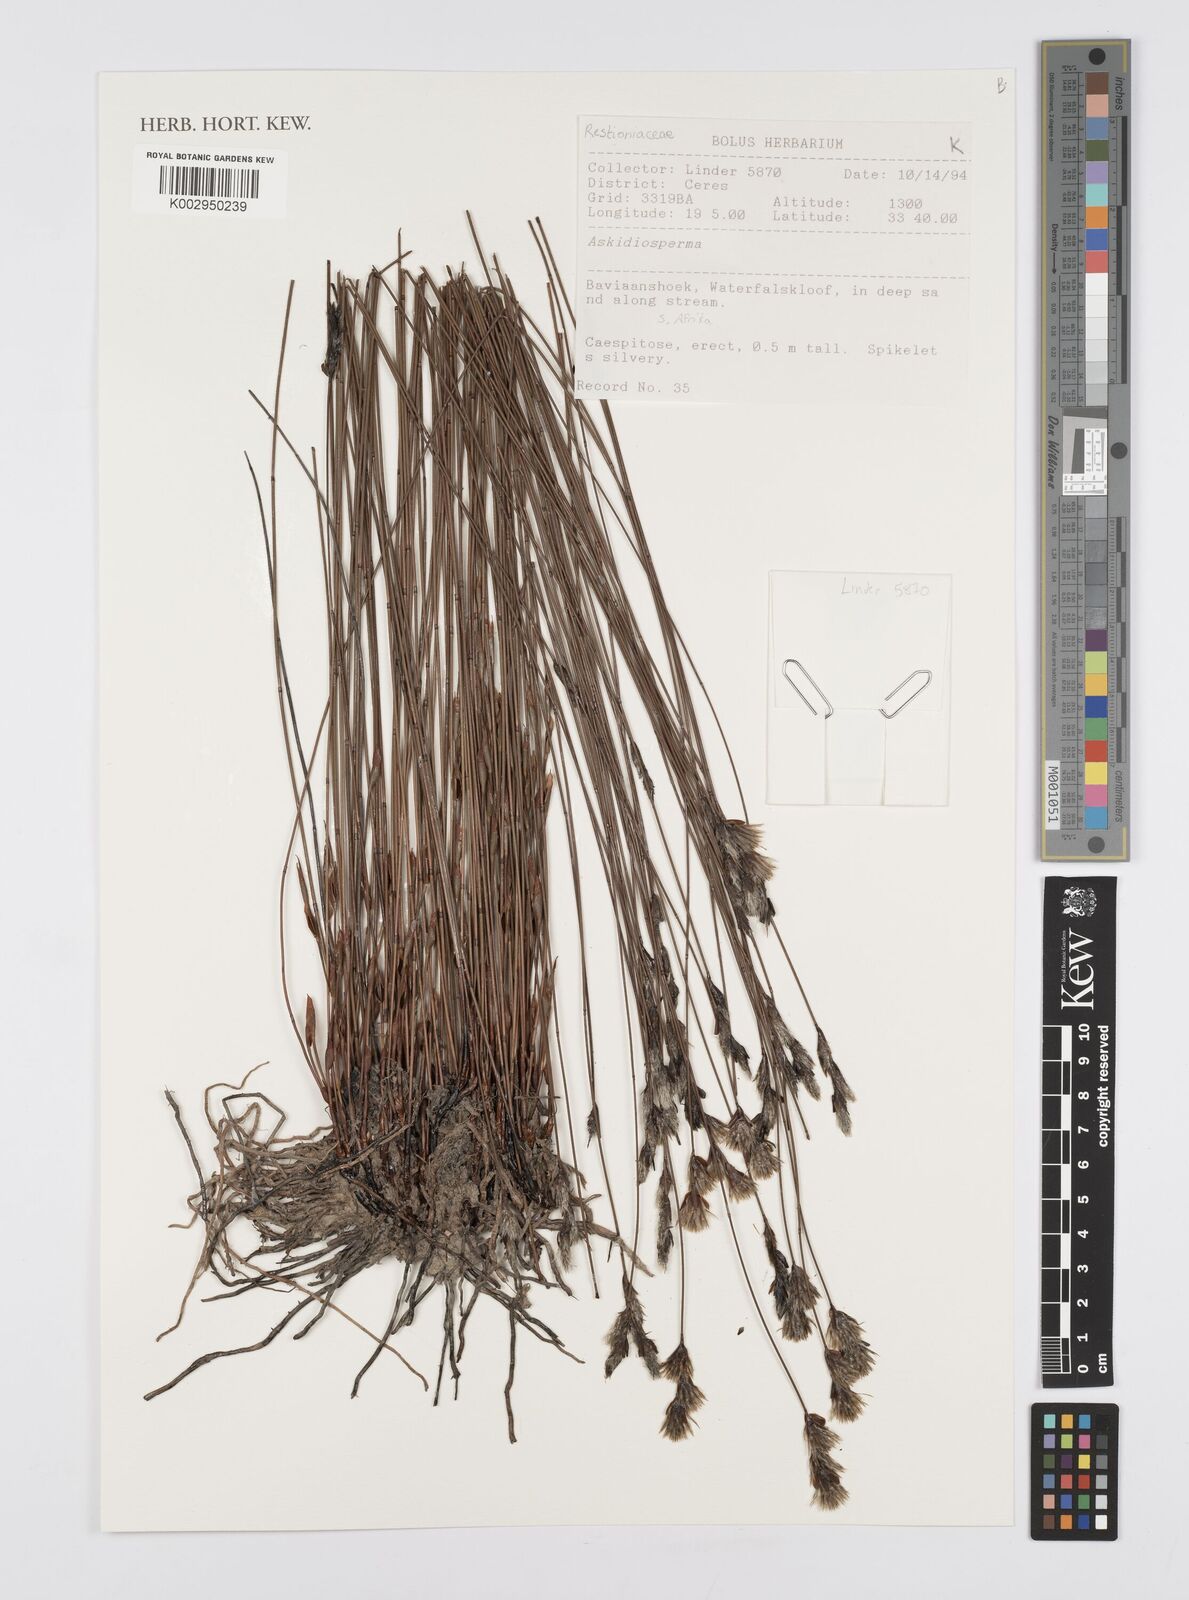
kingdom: Plantae
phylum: Tracheophyta
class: Liliopsida
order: Poales
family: Restionaceae
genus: Askidiosperma
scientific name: Askidiosperma
